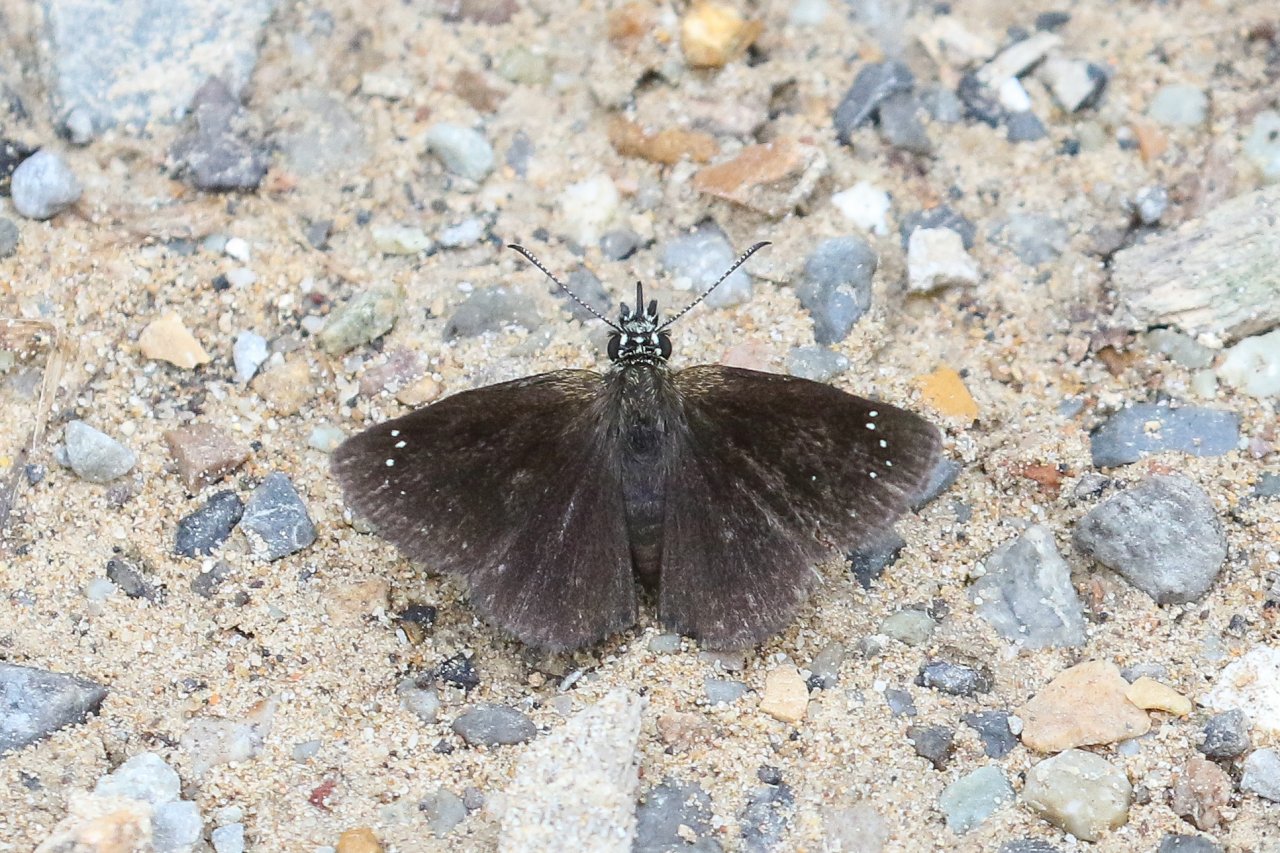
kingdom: Animalia
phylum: Arthropoda
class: Insecta
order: Lepidoptera
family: Hesperiidae
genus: Pholisora
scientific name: Pholisora catullus
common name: Common Sootywing
